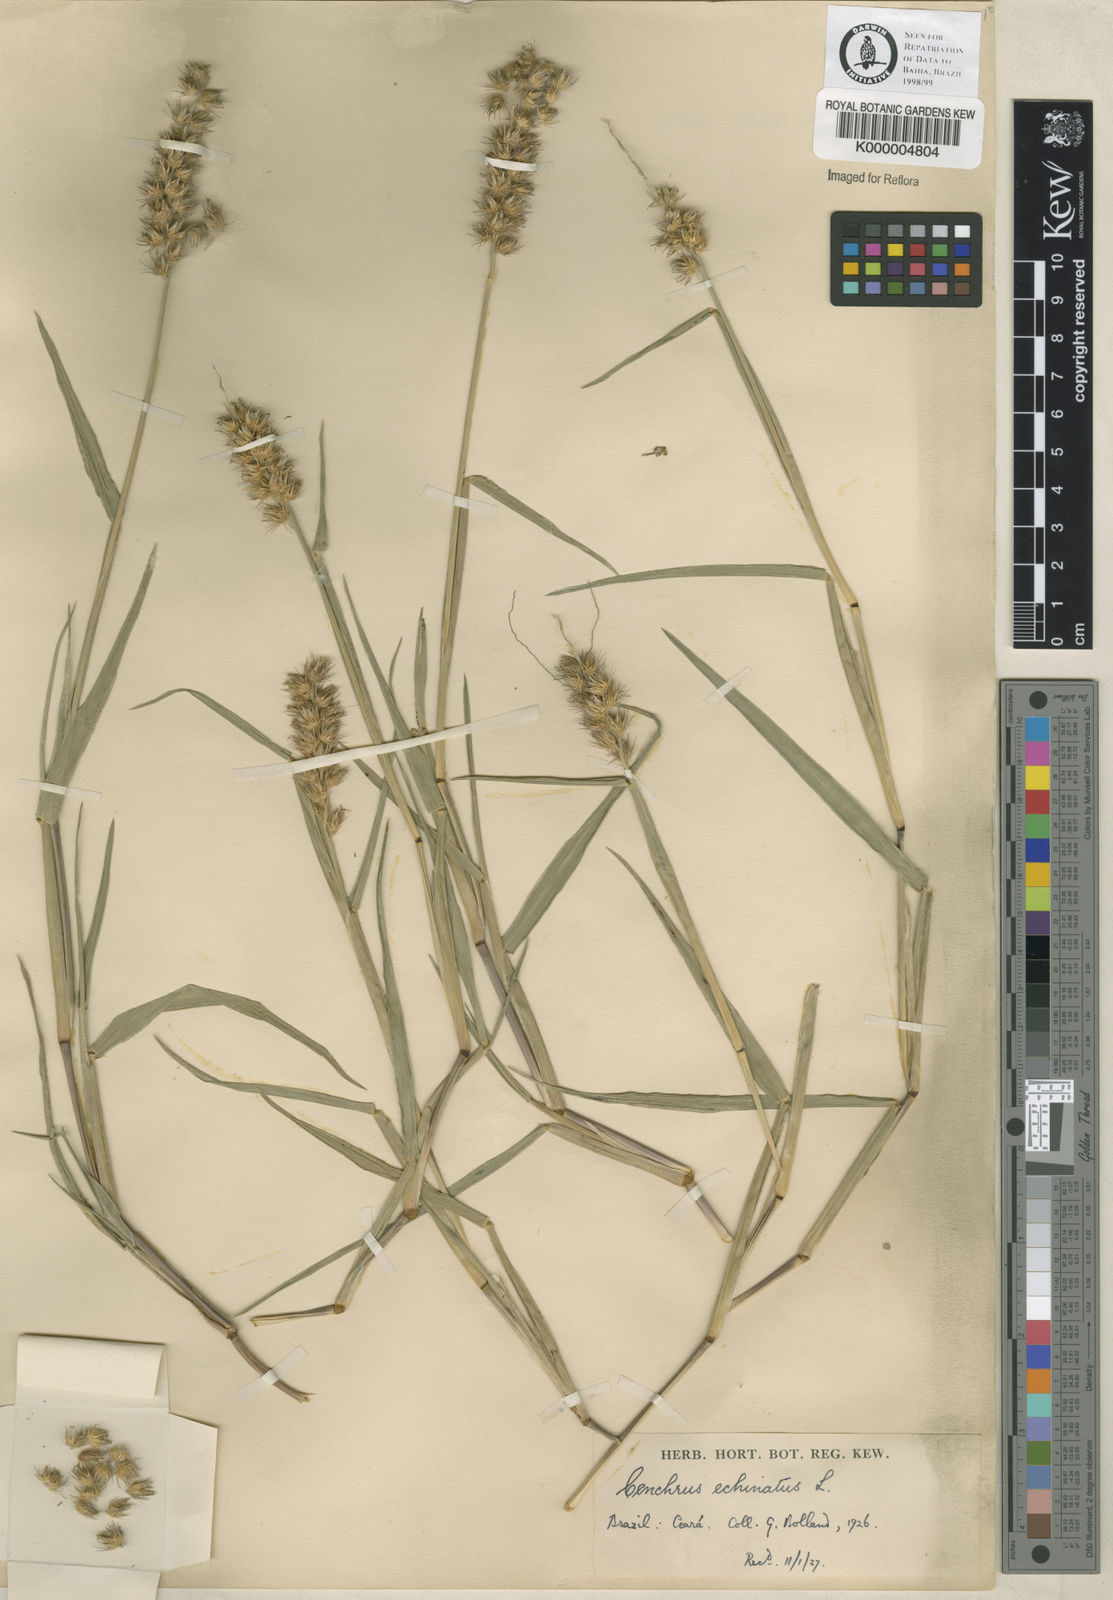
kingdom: Plantae
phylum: Tracheophyta
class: Liliopsida
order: Poales
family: Poaceae
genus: Cenchrus
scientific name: Cenchrus echinatus
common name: Southern sandbur
